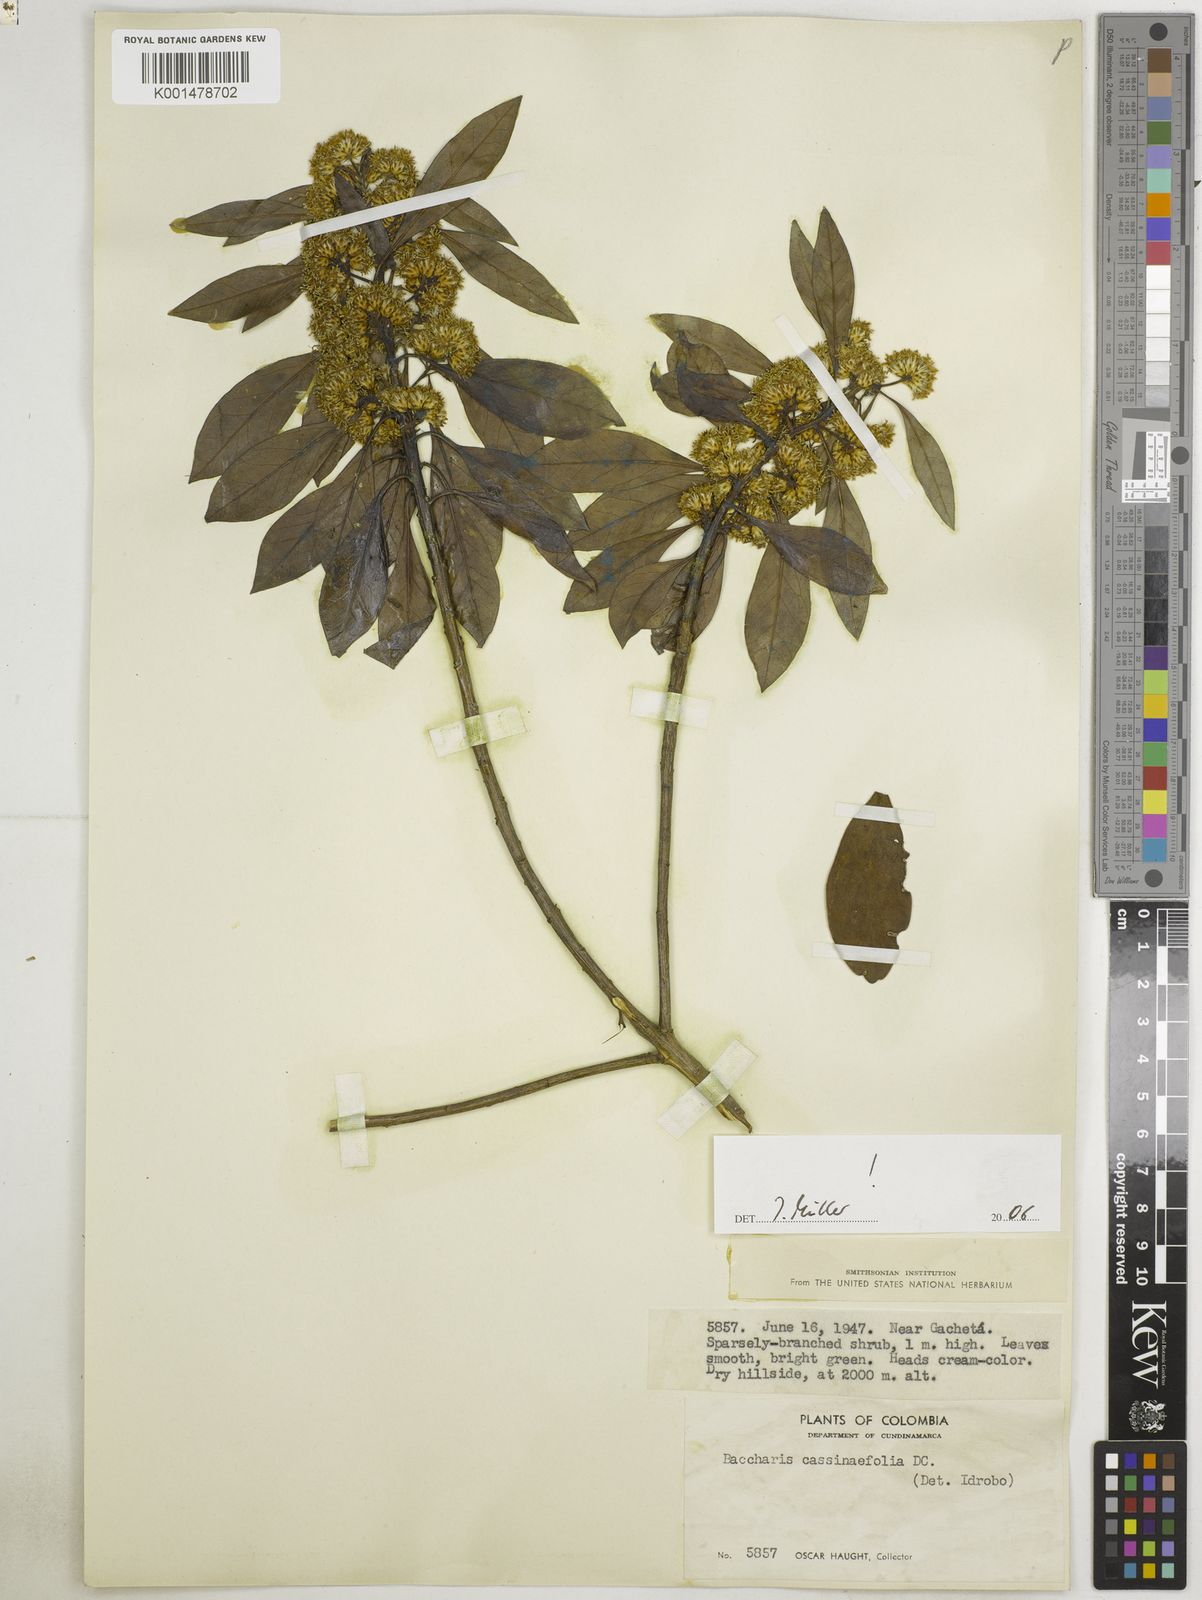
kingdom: Plantae
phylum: Tracheophyta
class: Magnoliopsida
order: Asterales
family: Asteraceae
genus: Blumea
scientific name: Blumea riparia
